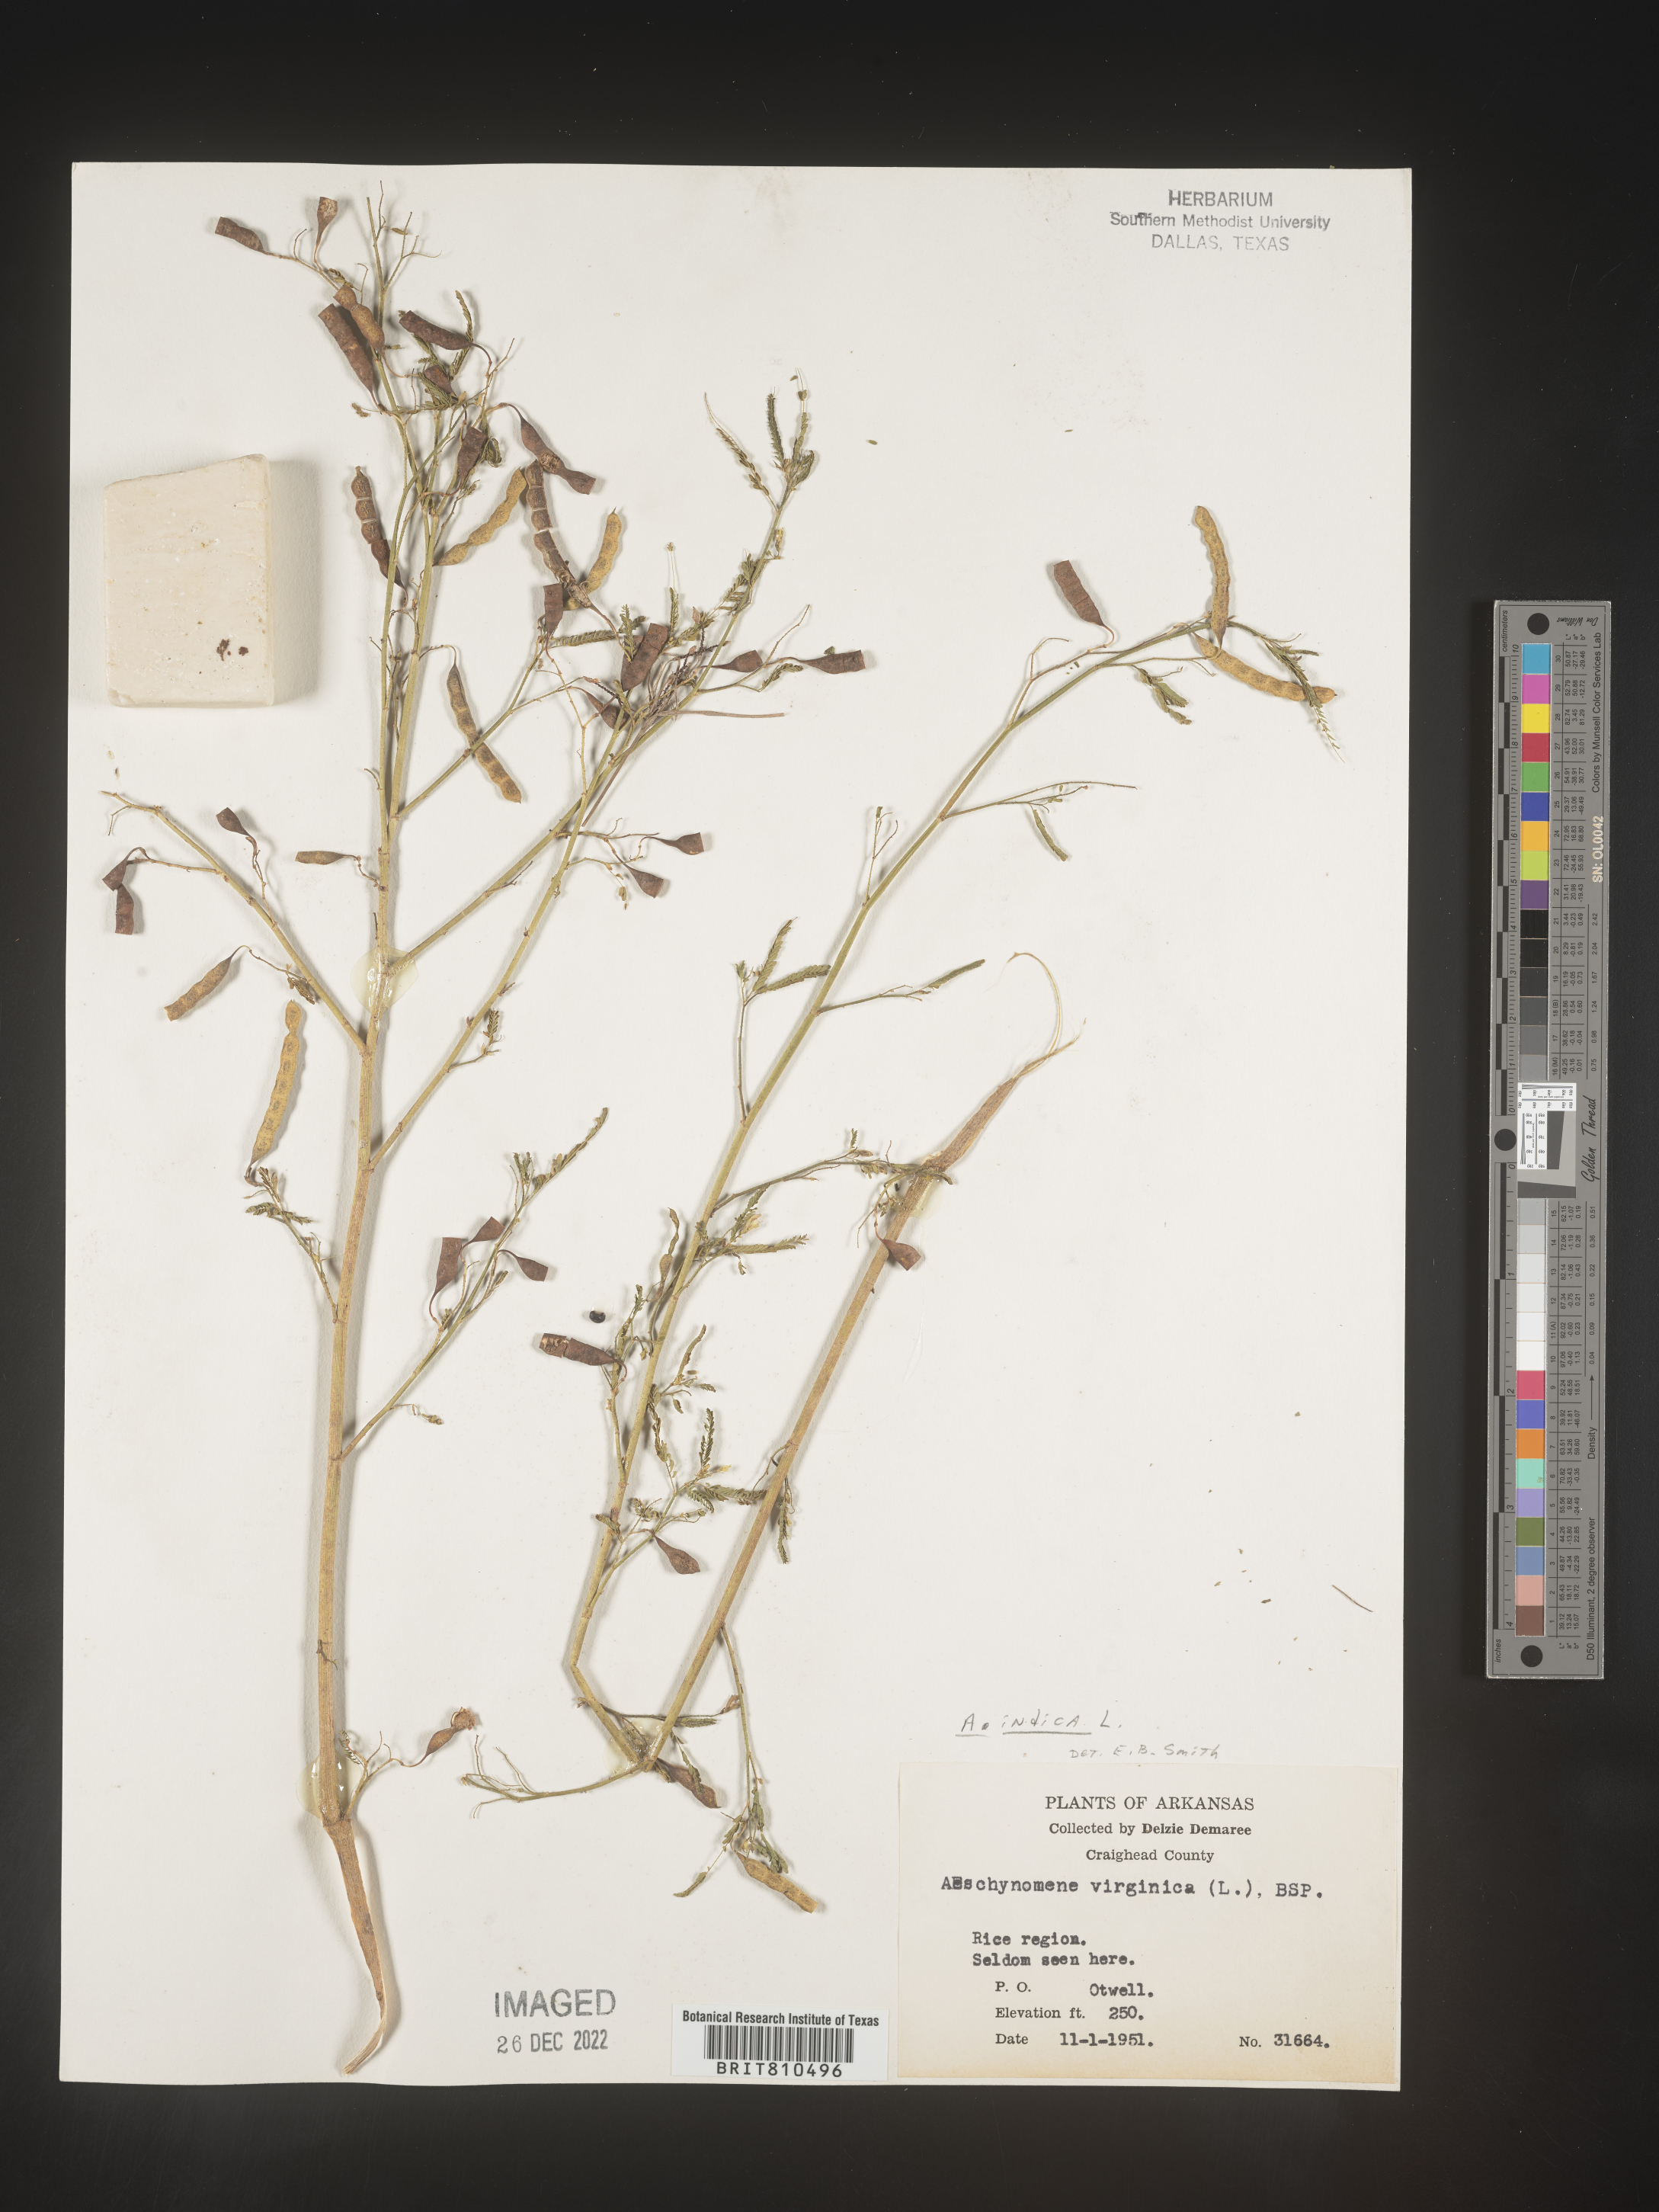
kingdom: Plantae
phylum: Tracheophyta
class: Magnoliopsida
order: Fabales
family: Fabaceae
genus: Aeschynomene
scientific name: Aeschynomene indica
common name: Indian jointvetch
